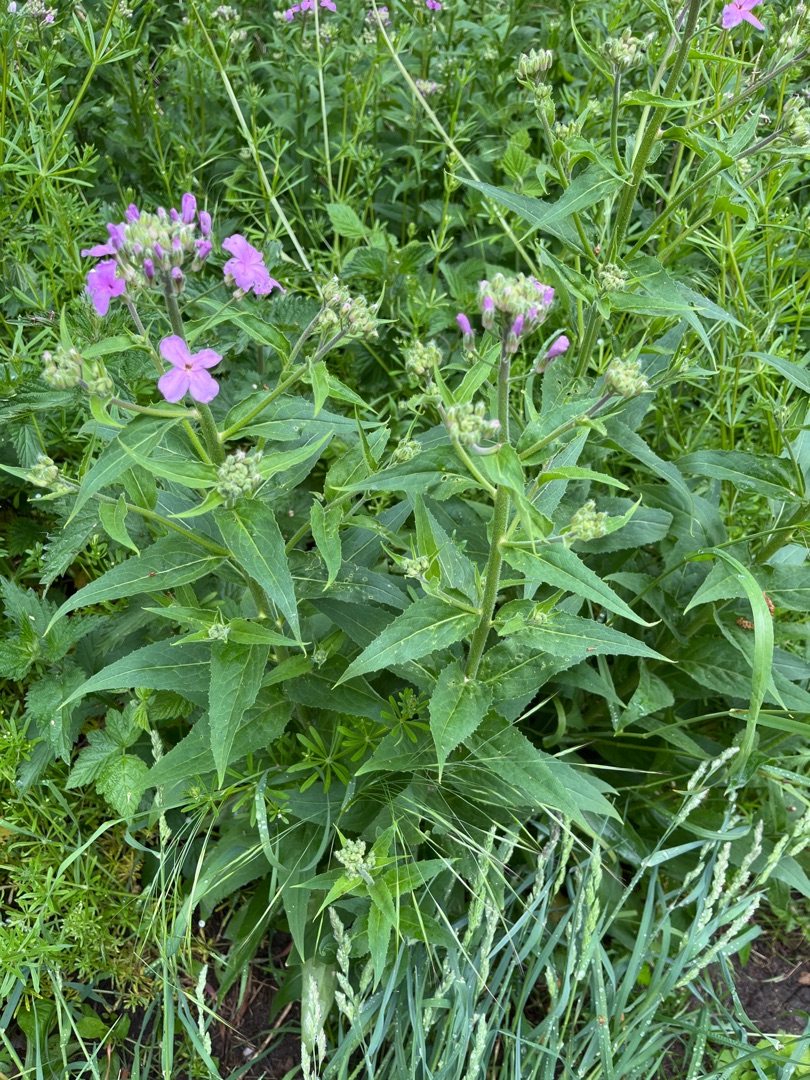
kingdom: Plantae
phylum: Tracheophyta
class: Magnoliopsida
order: Brassicales
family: Brassicaceae
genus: Hesperis
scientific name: Hesperis matronalis
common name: Aftenstjerne
